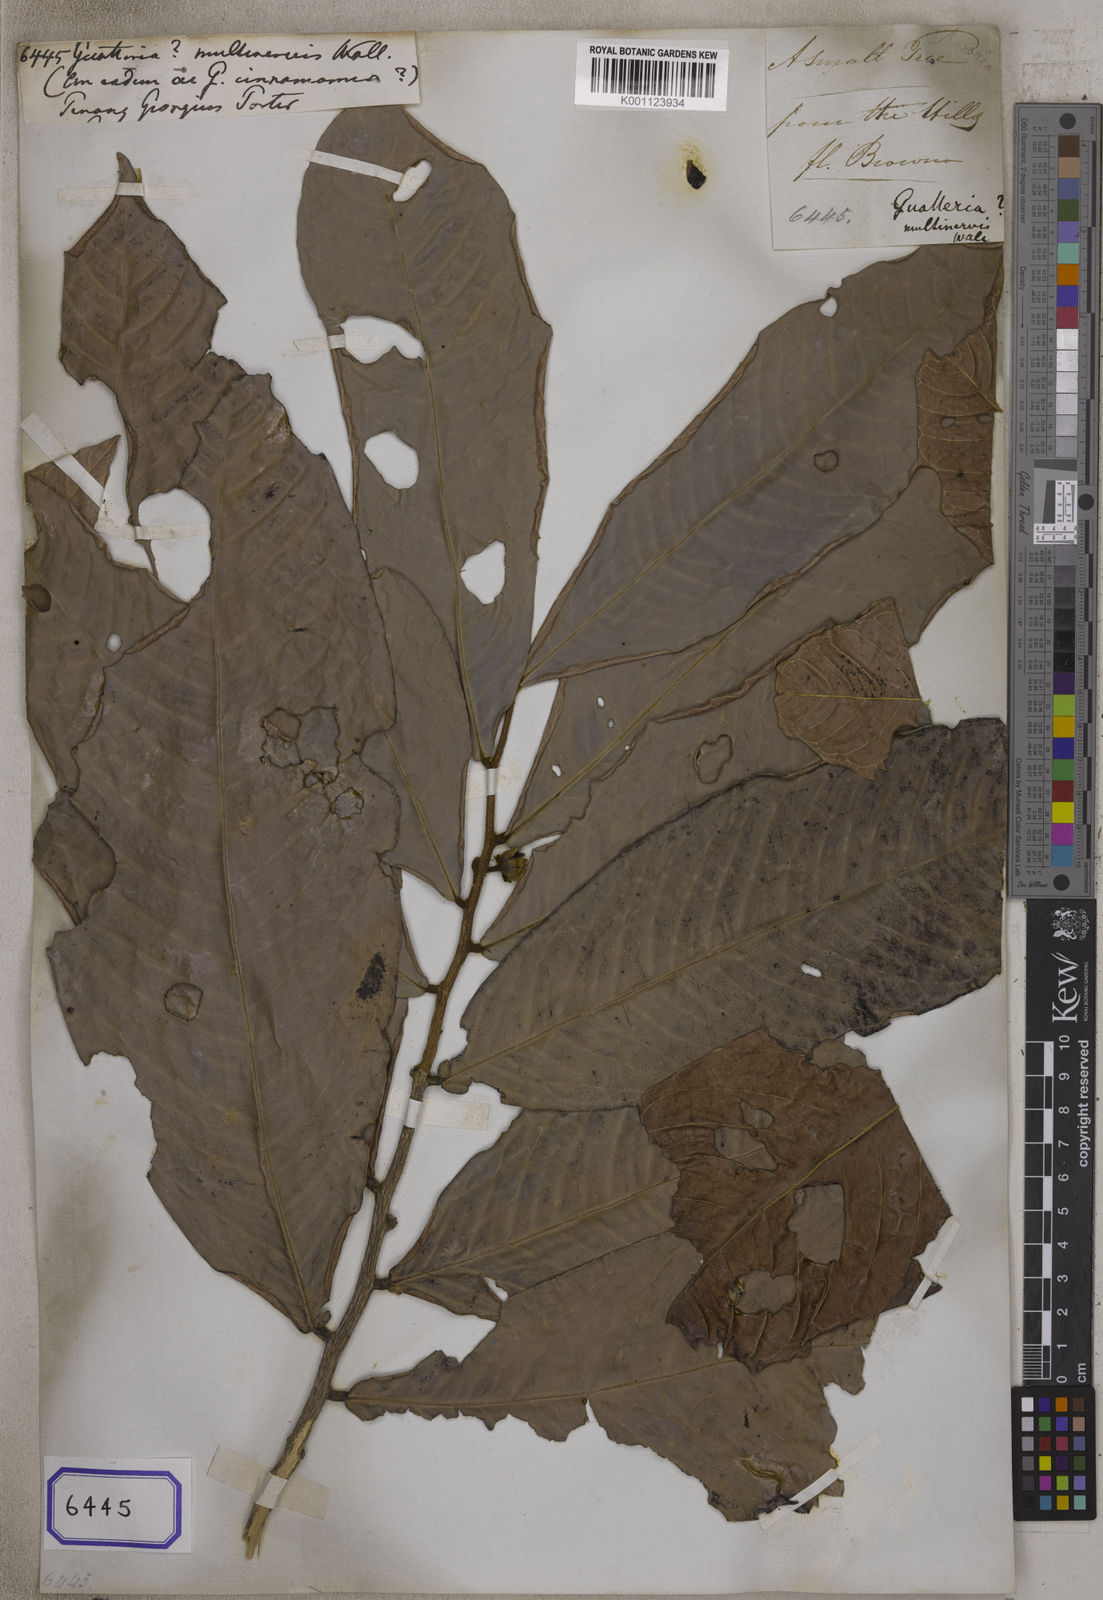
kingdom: Plantae
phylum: Tracheophyta
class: Magnoliopsida
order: Magnoliales
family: Annonaceae
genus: Polyalthia
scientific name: Polyalthia cinnamomea
